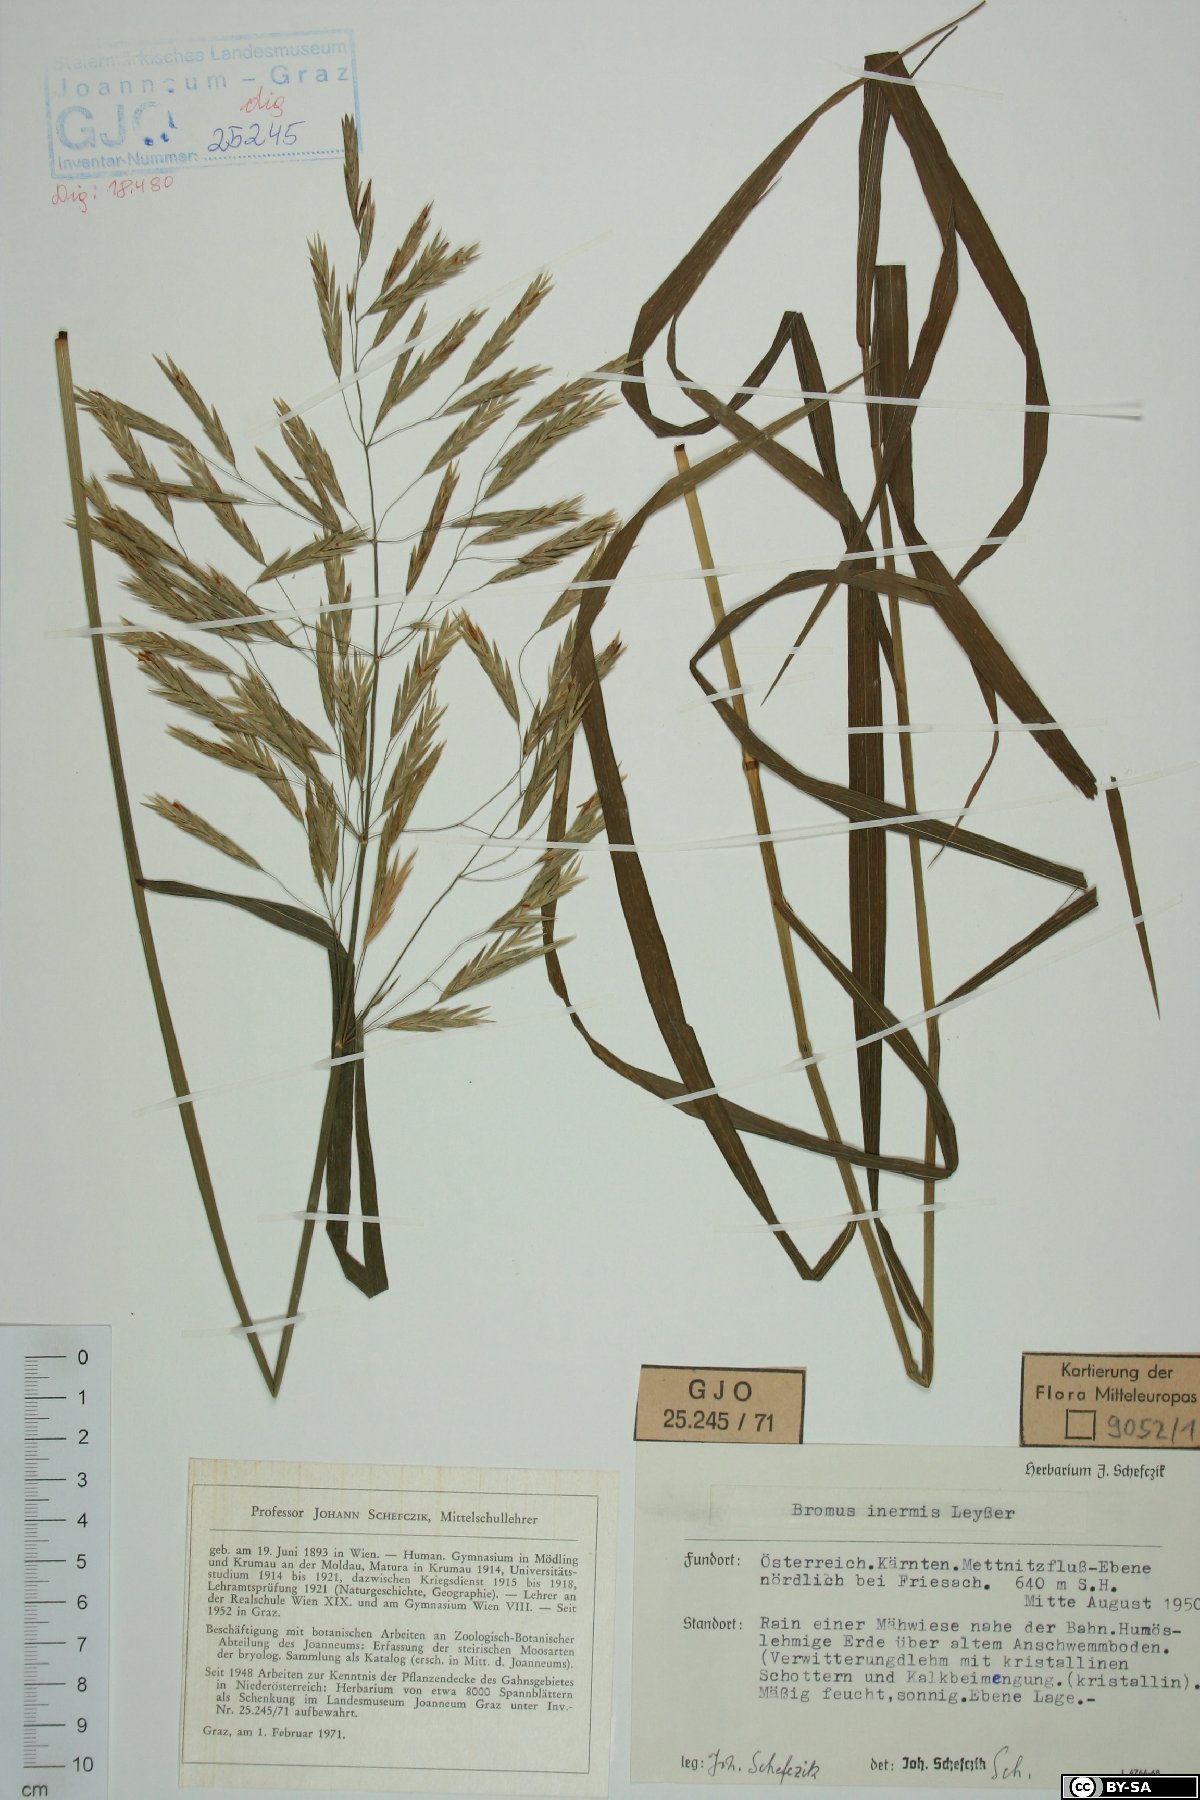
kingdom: Plantae
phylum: Tracheophyta
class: Liliopsida
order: Poales
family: Poaceae
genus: Bromus
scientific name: Bromus inermis
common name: Smooth brome
